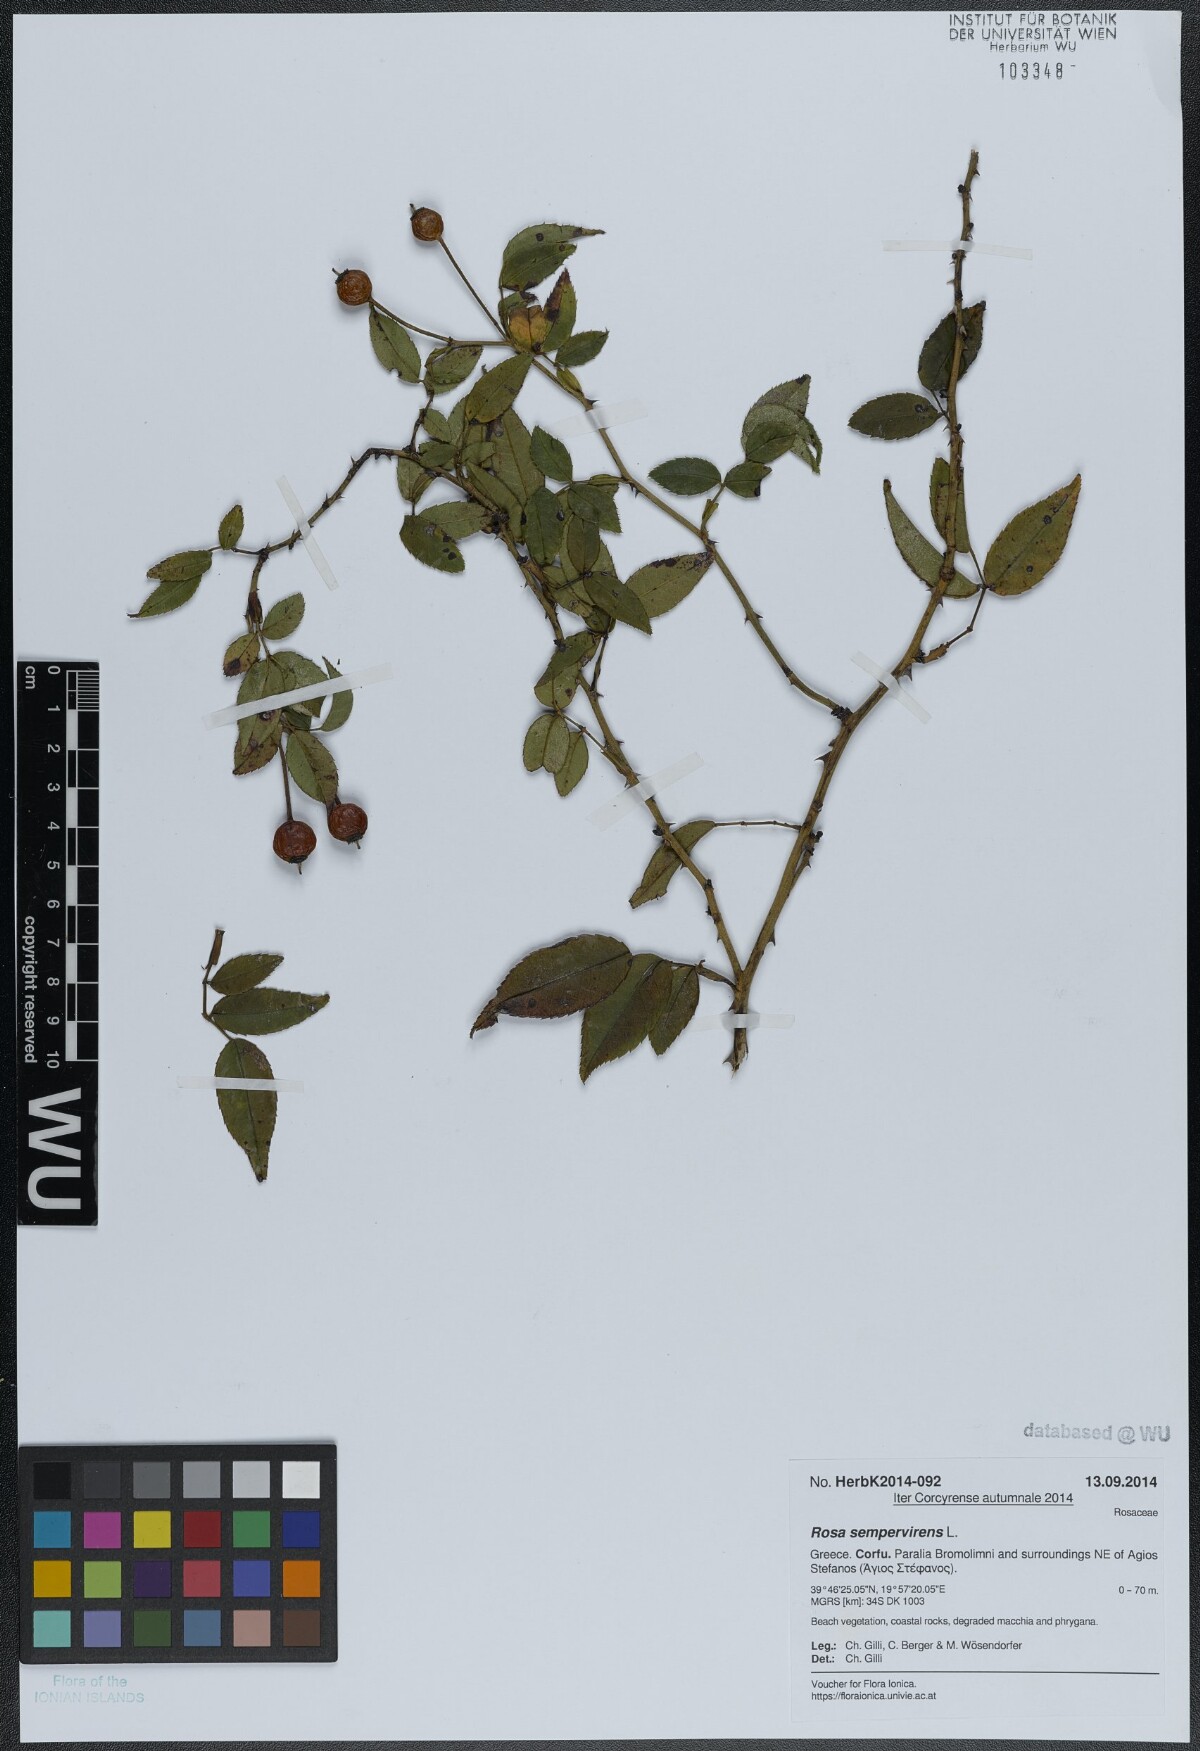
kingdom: Plantae
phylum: Tracheophyta
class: Magnoliopsida
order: Rosales
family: Rosaceae
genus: Rosa
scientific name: Rosa sempervirens
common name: Evergreen rose
